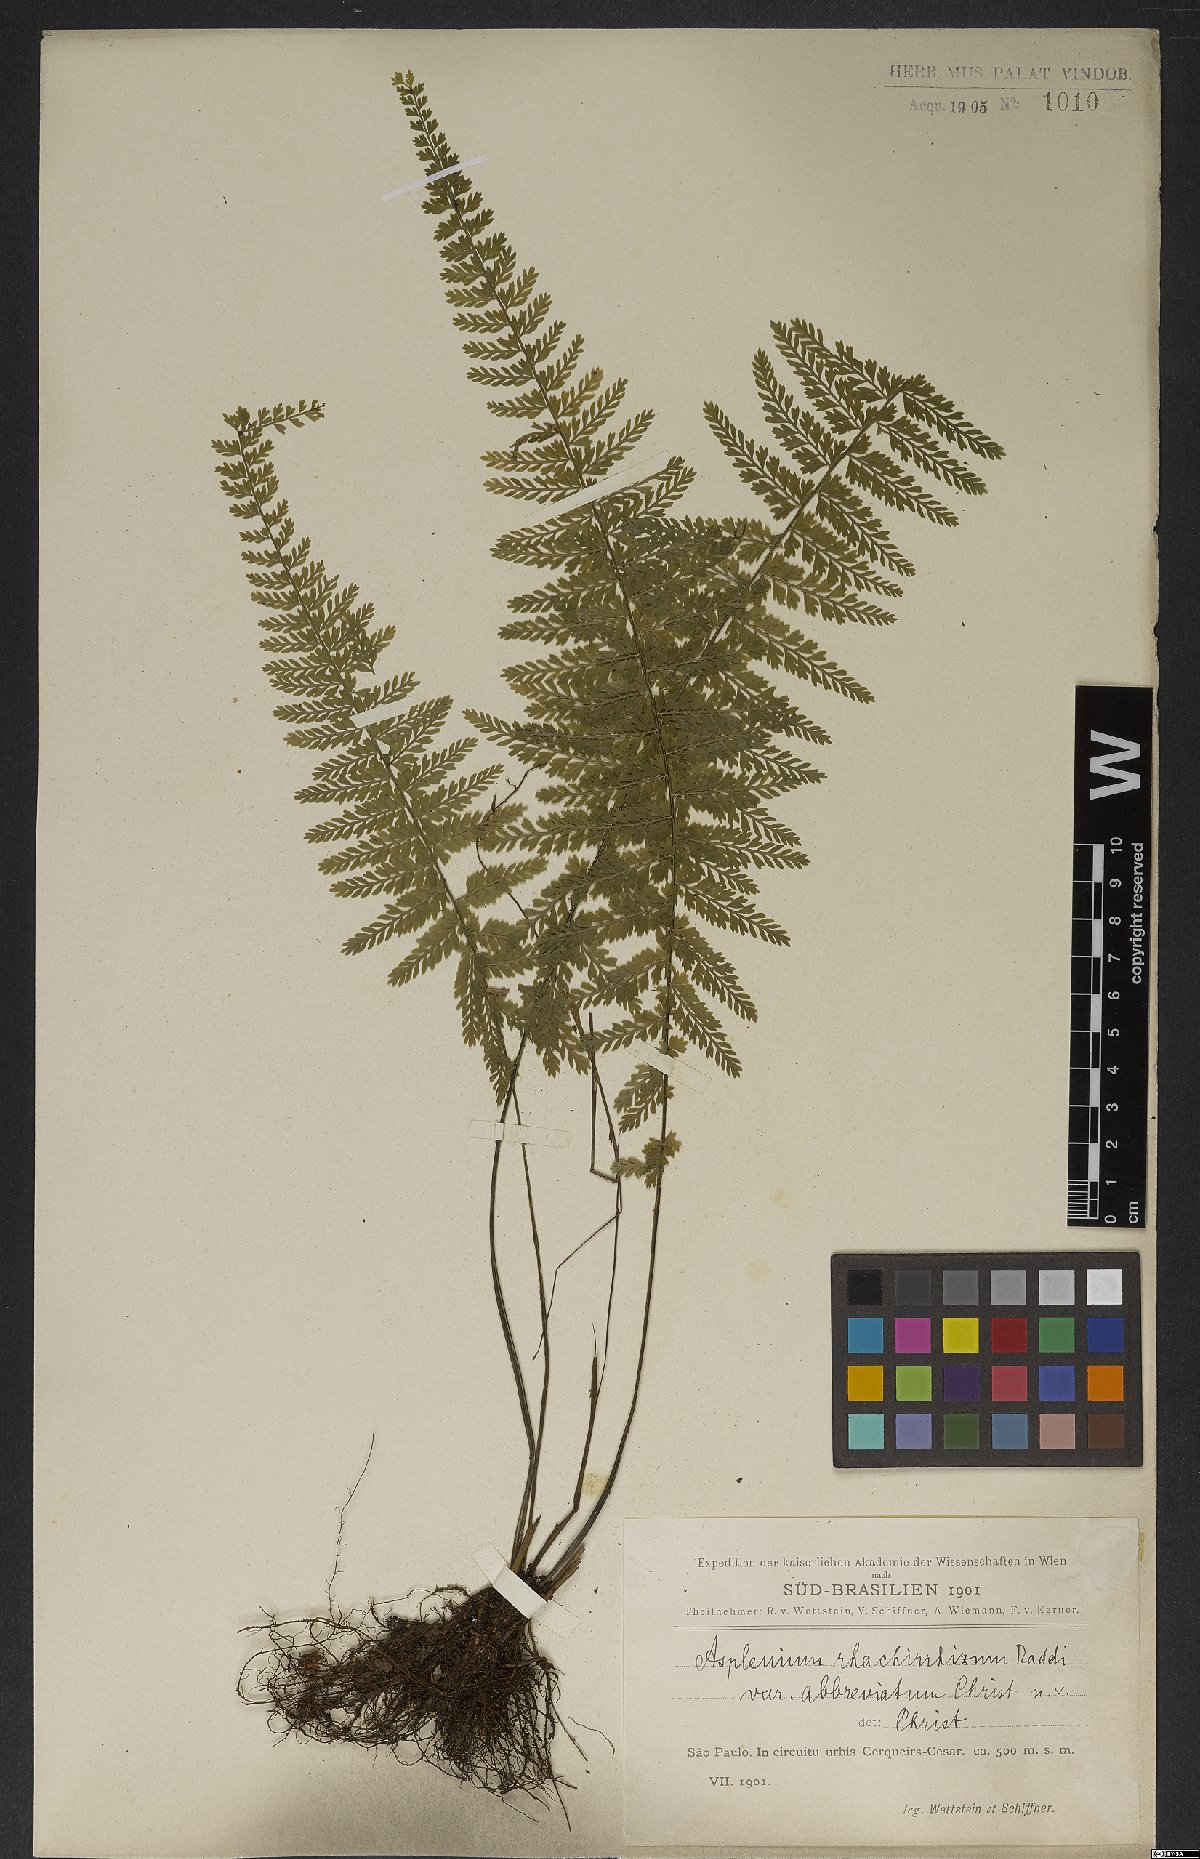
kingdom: Plantae
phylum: Tracheophyta
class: Polypodiopsida
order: Polypodiales
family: Aspleniaceae
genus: Asplenium
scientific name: Asplenium uniseriale
